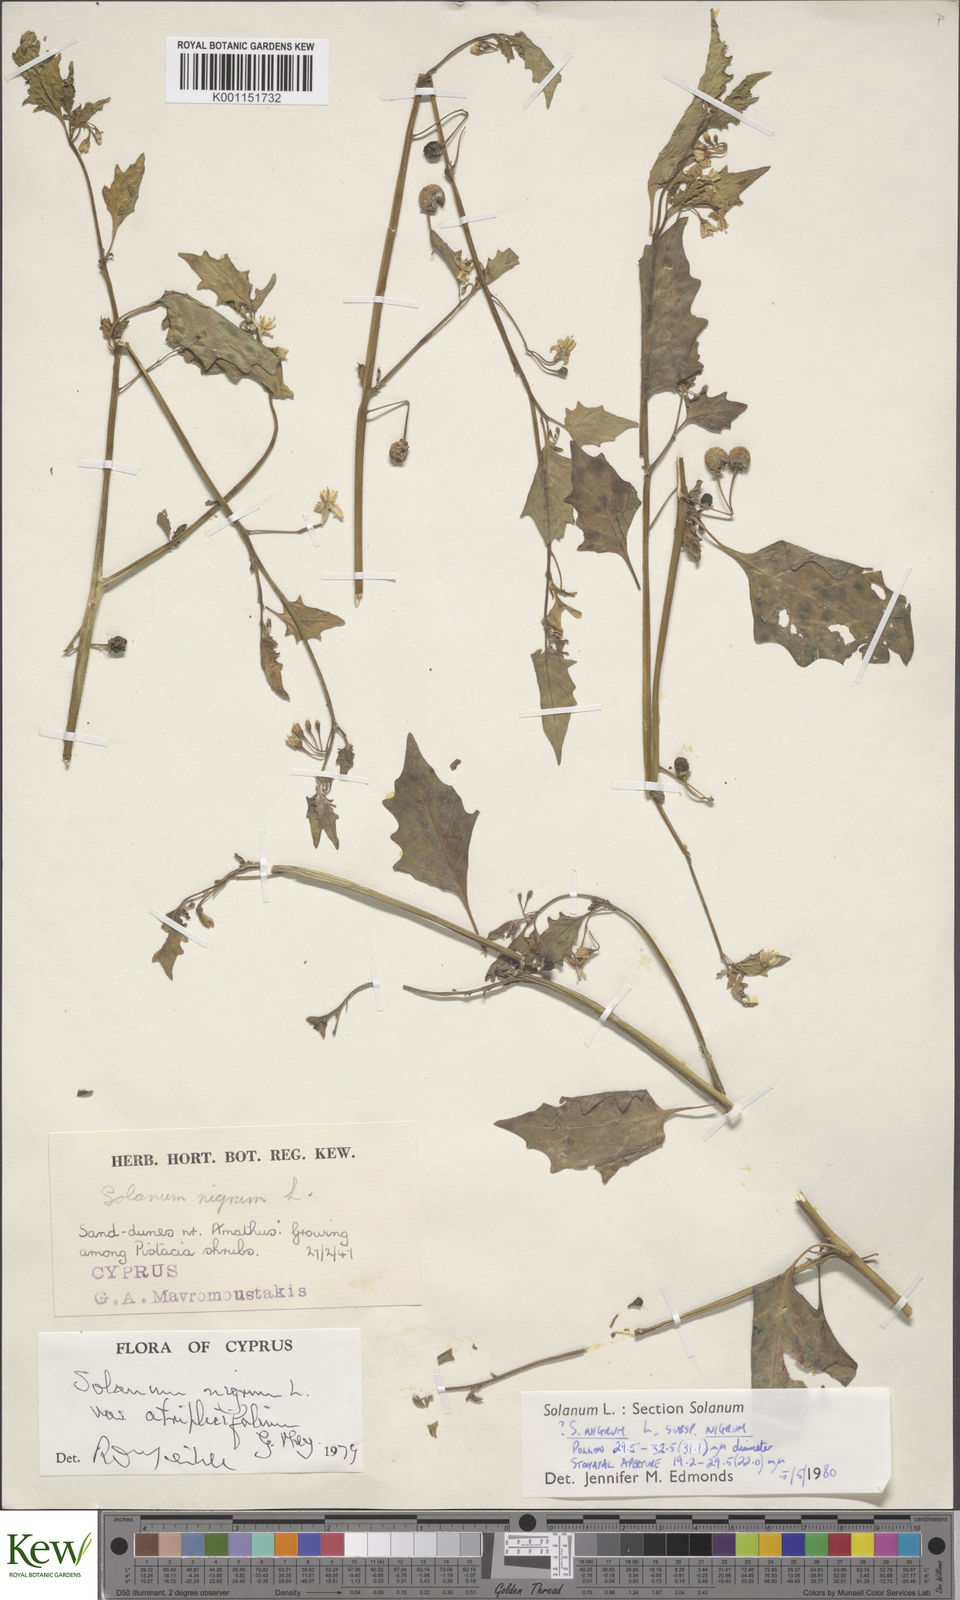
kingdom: Plantae
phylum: Tracheophyta
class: Magnoliopsida
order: Solanales
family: Solanaceae
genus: Solanum
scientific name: Solanum nigrum
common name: Black nightshade
